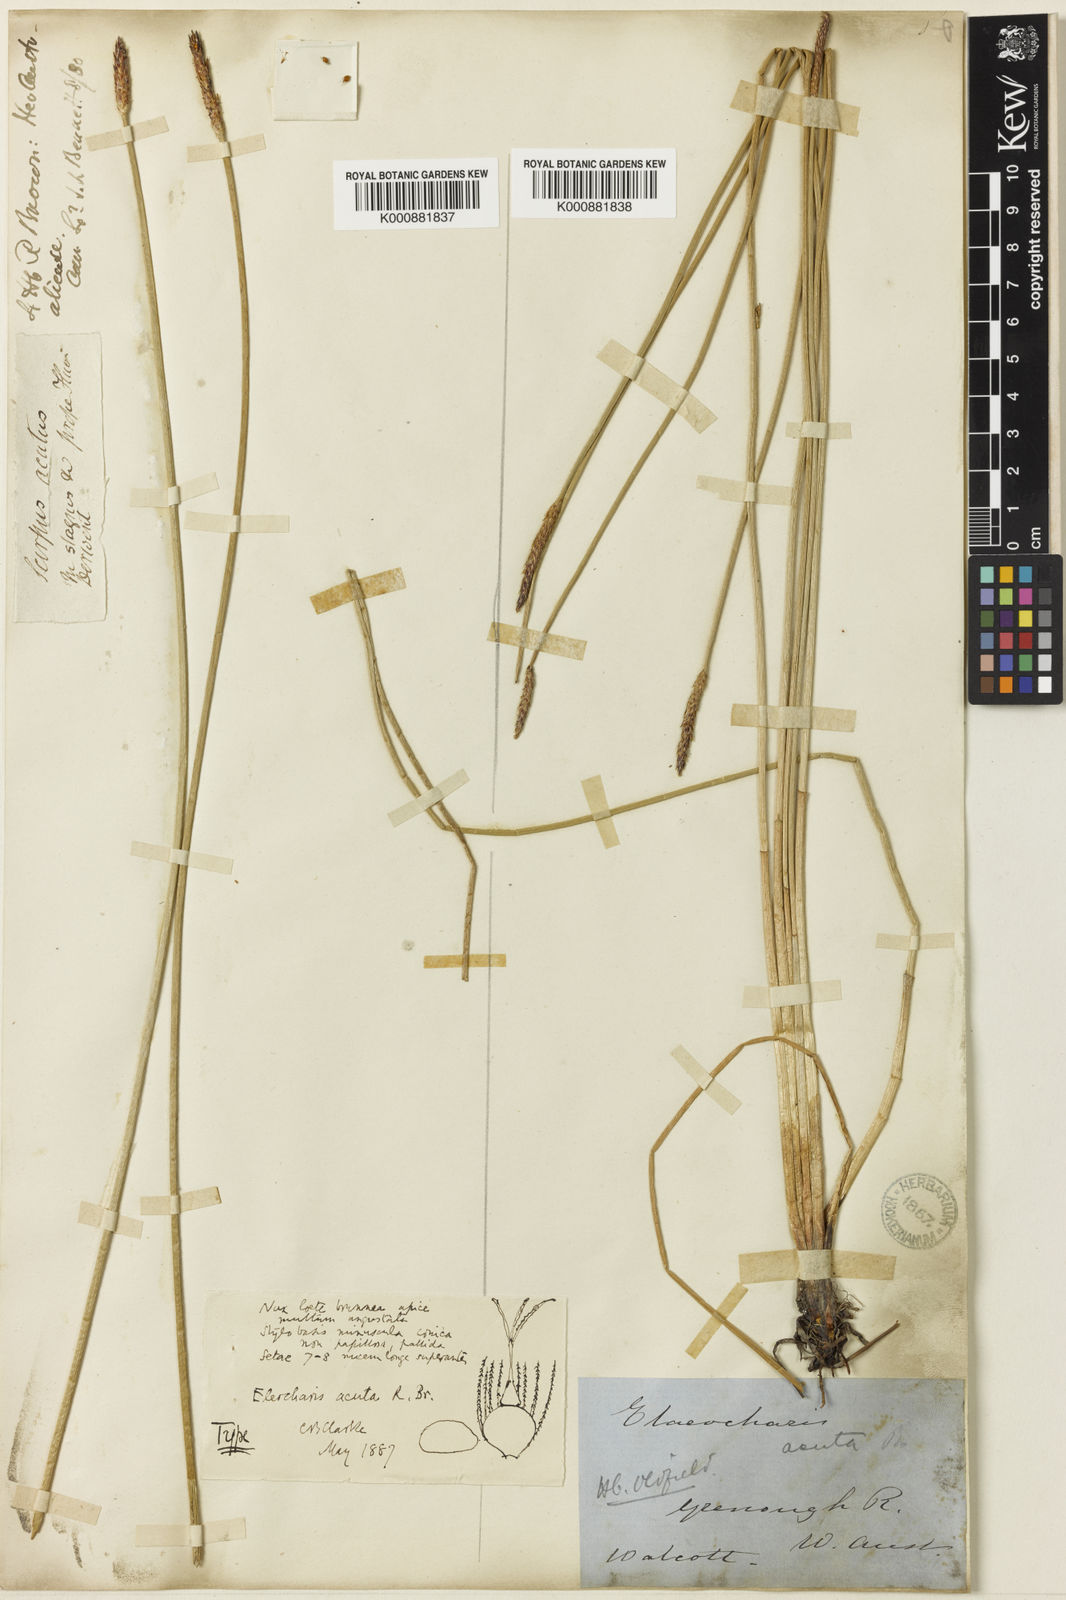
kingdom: Plantae
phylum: Tracheophyta
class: Liliopsida
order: Poales
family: Cyperaceae
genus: Eleocharis
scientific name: Eleocharis acuta
